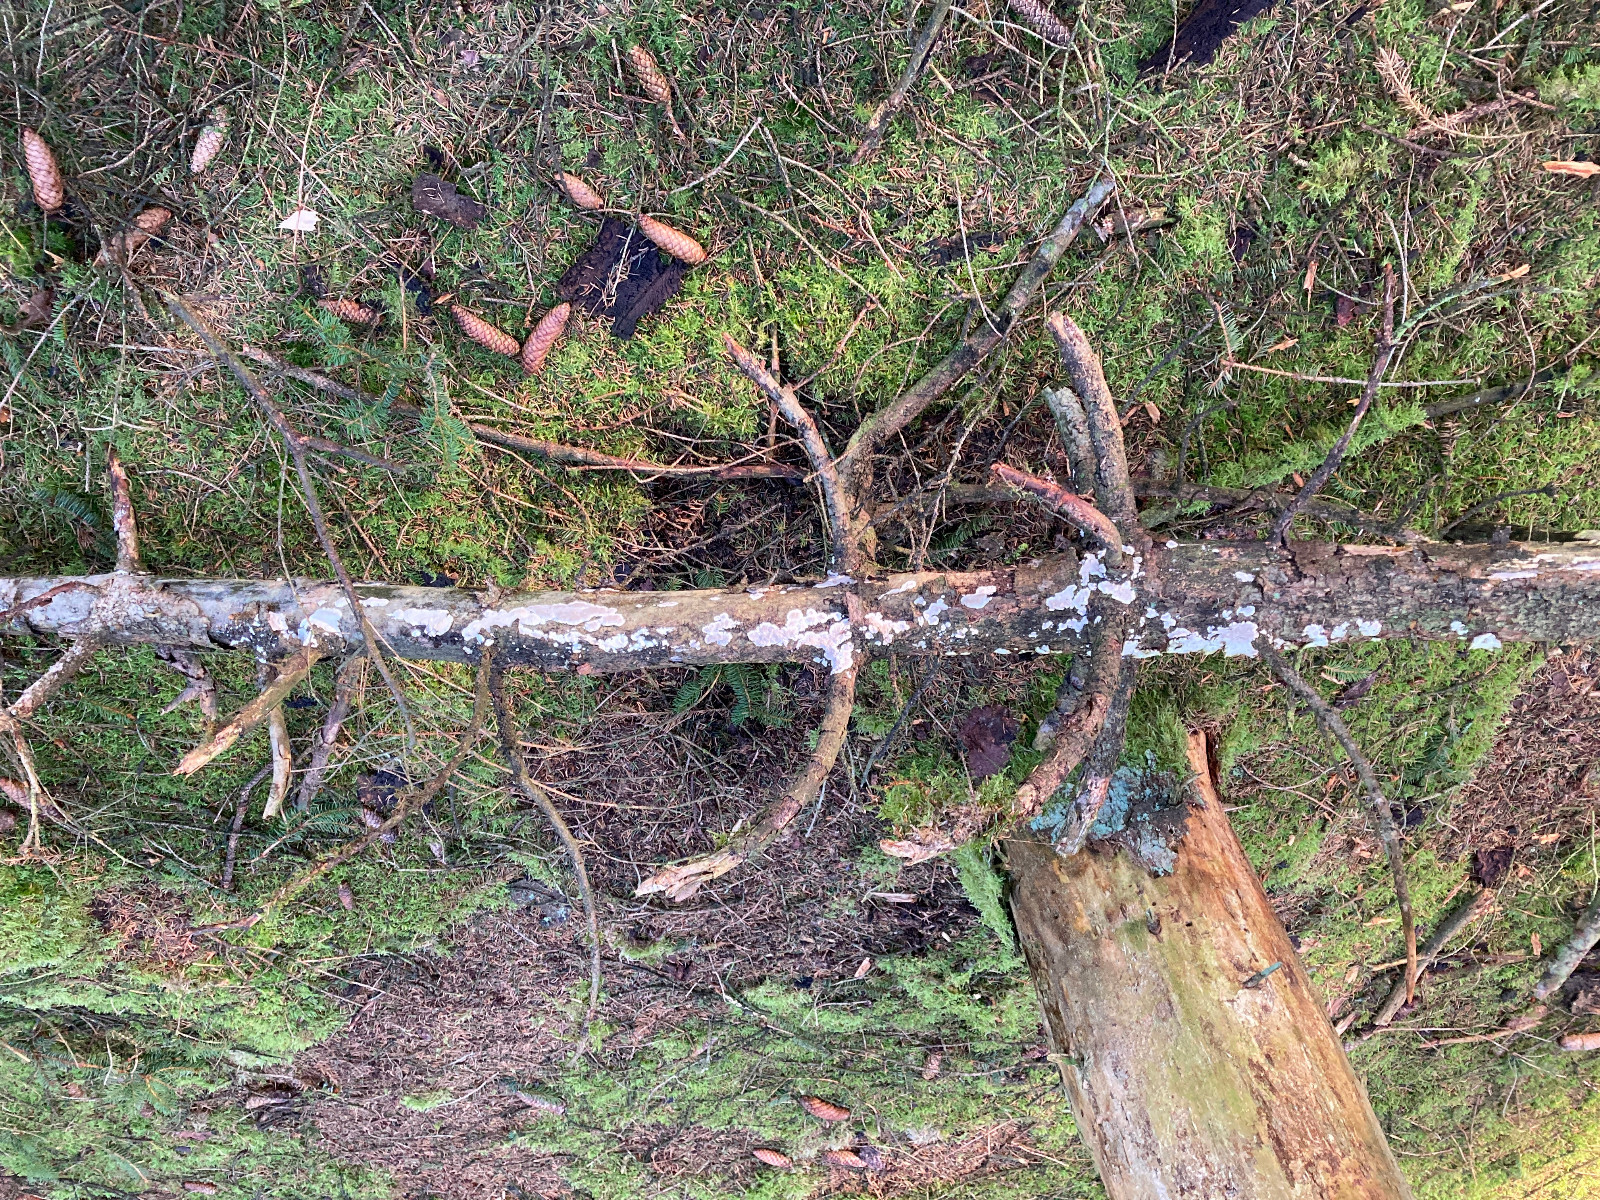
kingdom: Fungi
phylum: Basidiomycota
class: Agaricomycetes
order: Polyporales
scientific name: Polyporales
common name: poresvampordenen
